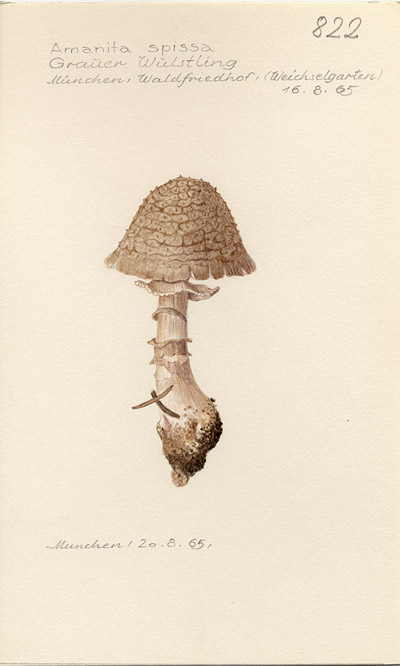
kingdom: Fungi
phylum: Basidiomycota
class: Agaricomycetes
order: Agaricales
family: Amanitaceae
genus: Amanita
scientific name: Amanita excelsa
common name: European false blusher
